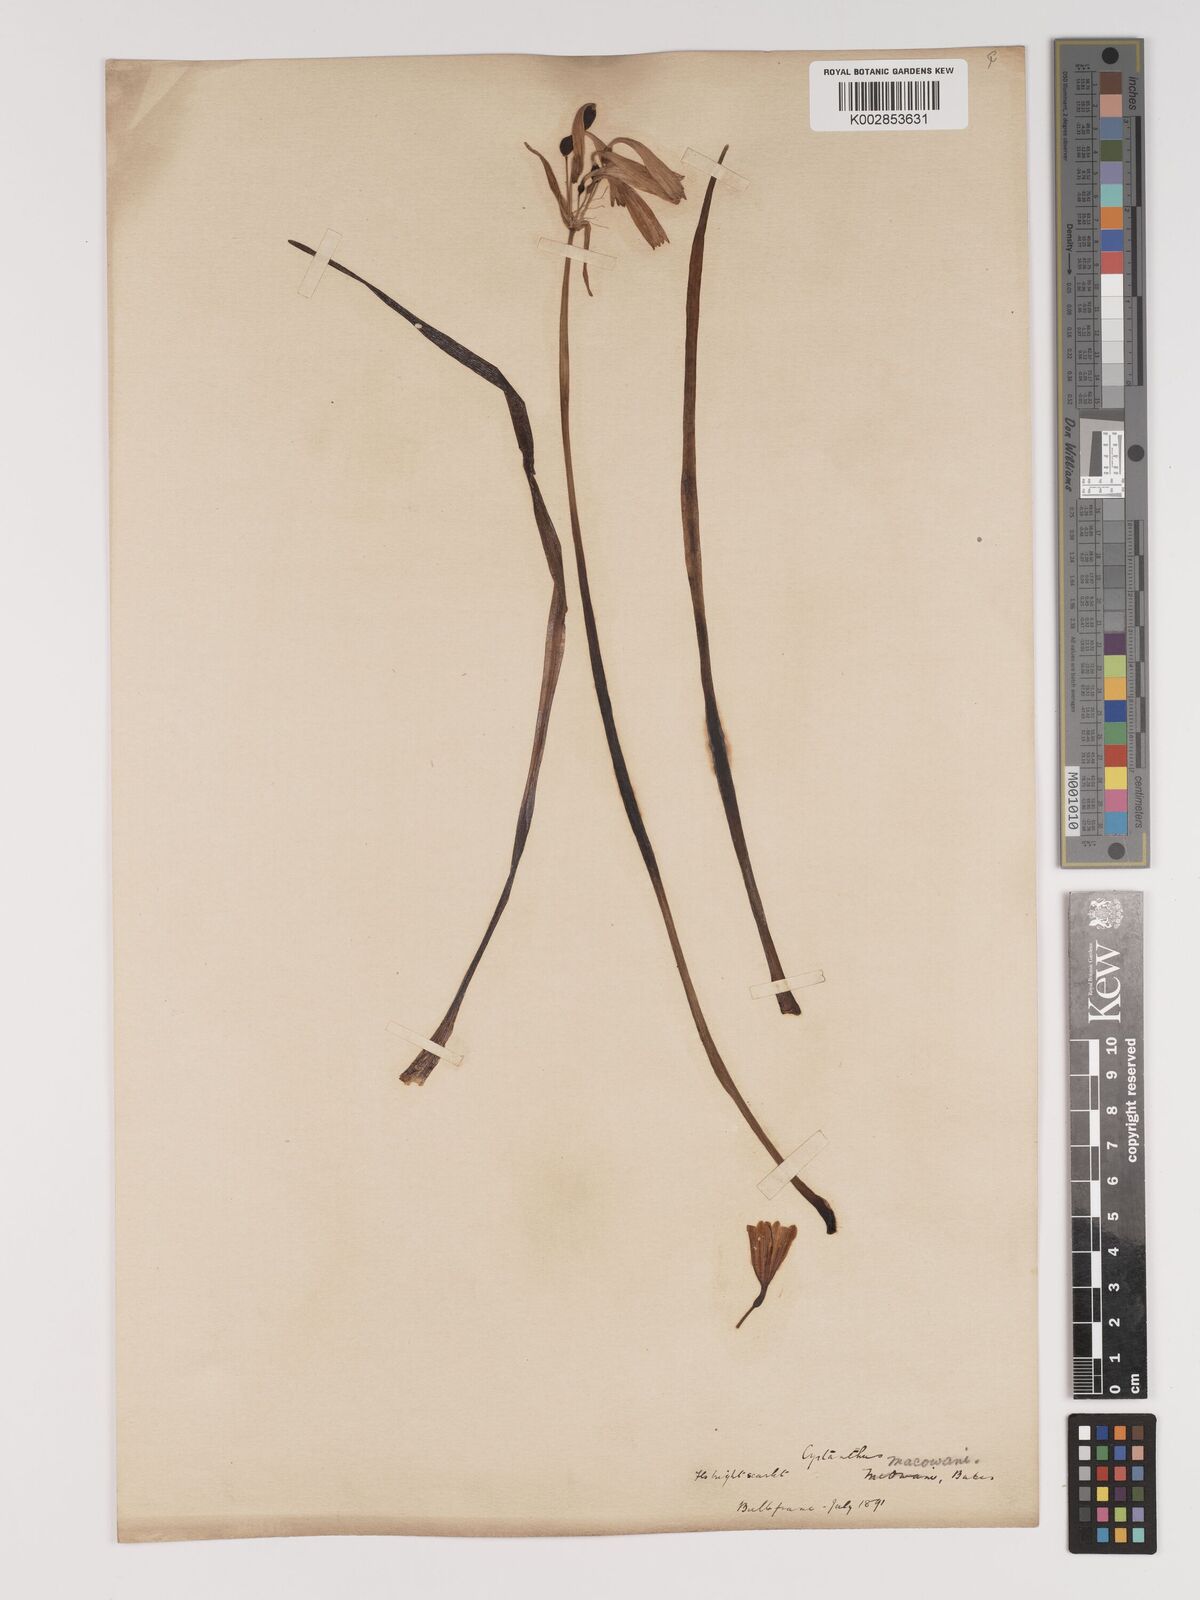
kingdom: Plantae
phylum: Tracheophyta
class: Liliopsida
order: Asparagales
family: Amaryllidaceae
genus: Cyrtanthus
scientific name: Cyrtanthus macowanii
